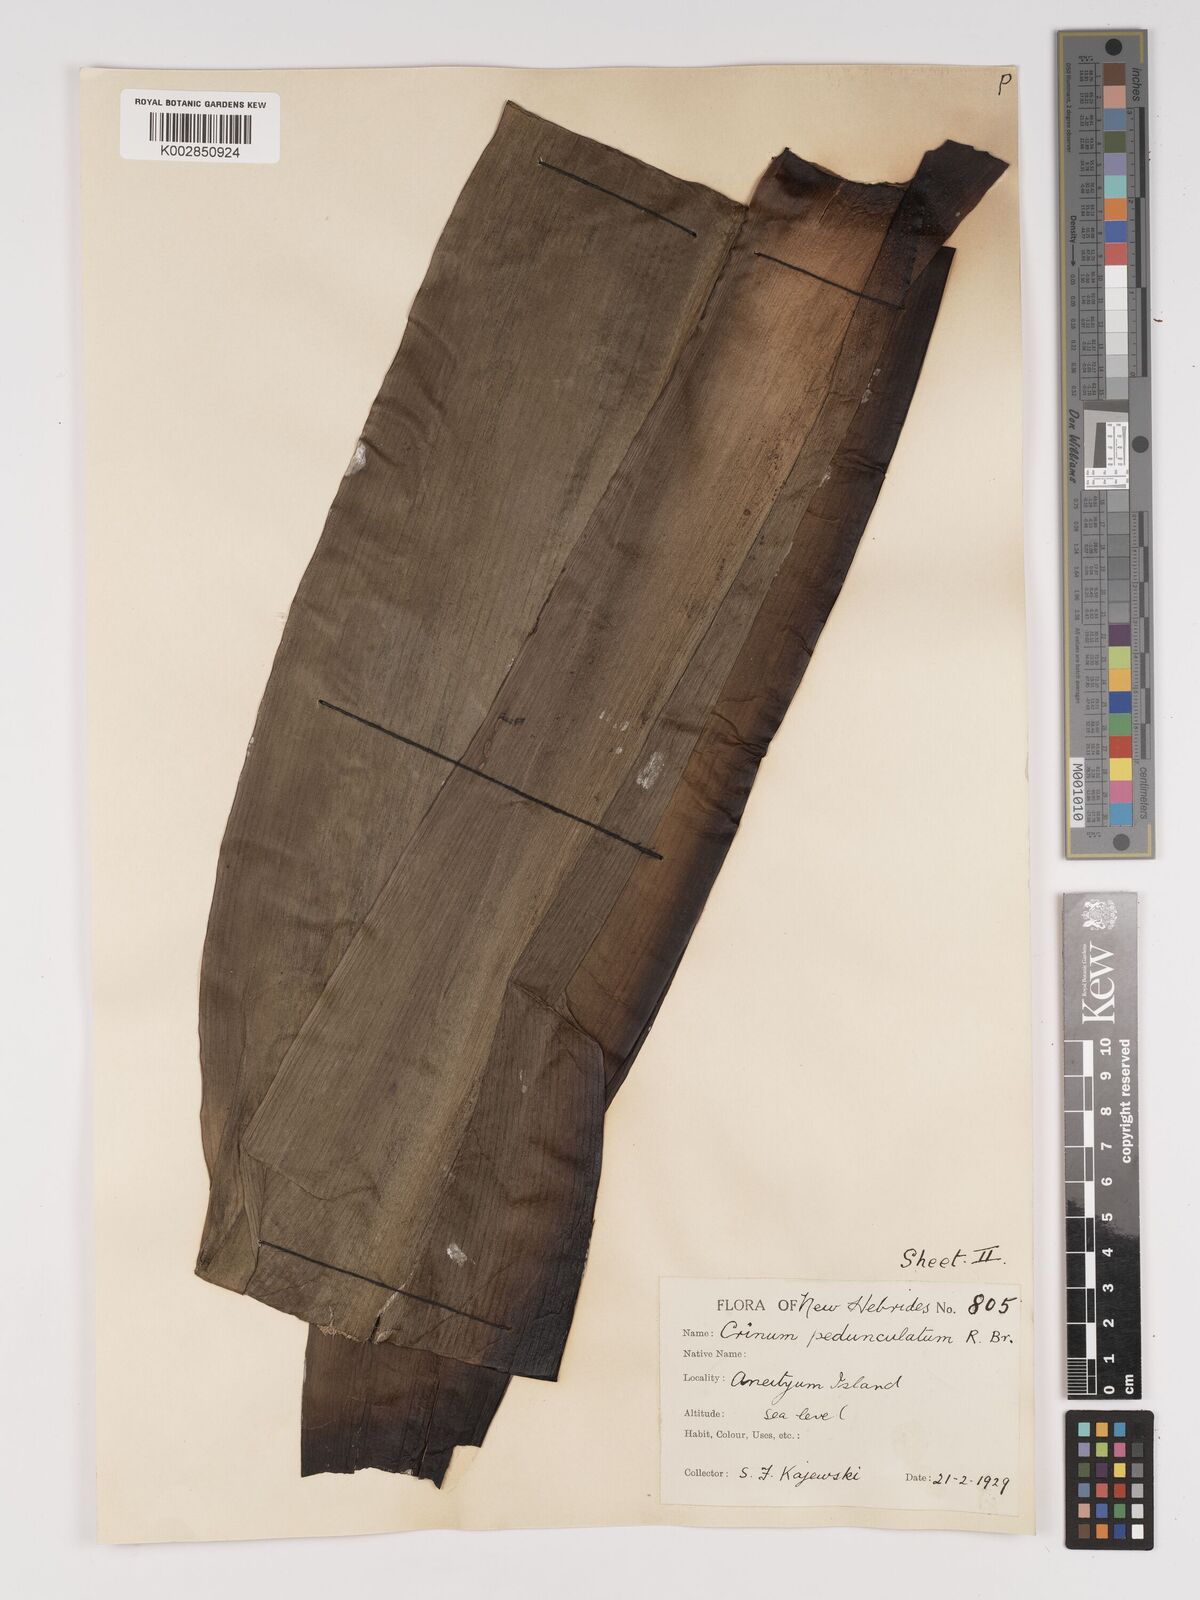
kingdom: Plantae
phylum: Tracheophyta
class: Liliopsida
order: Asparagales
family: Amaryllidaceae
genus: Crinum
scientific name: Crinum asiaticum
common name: Poisonbulb
